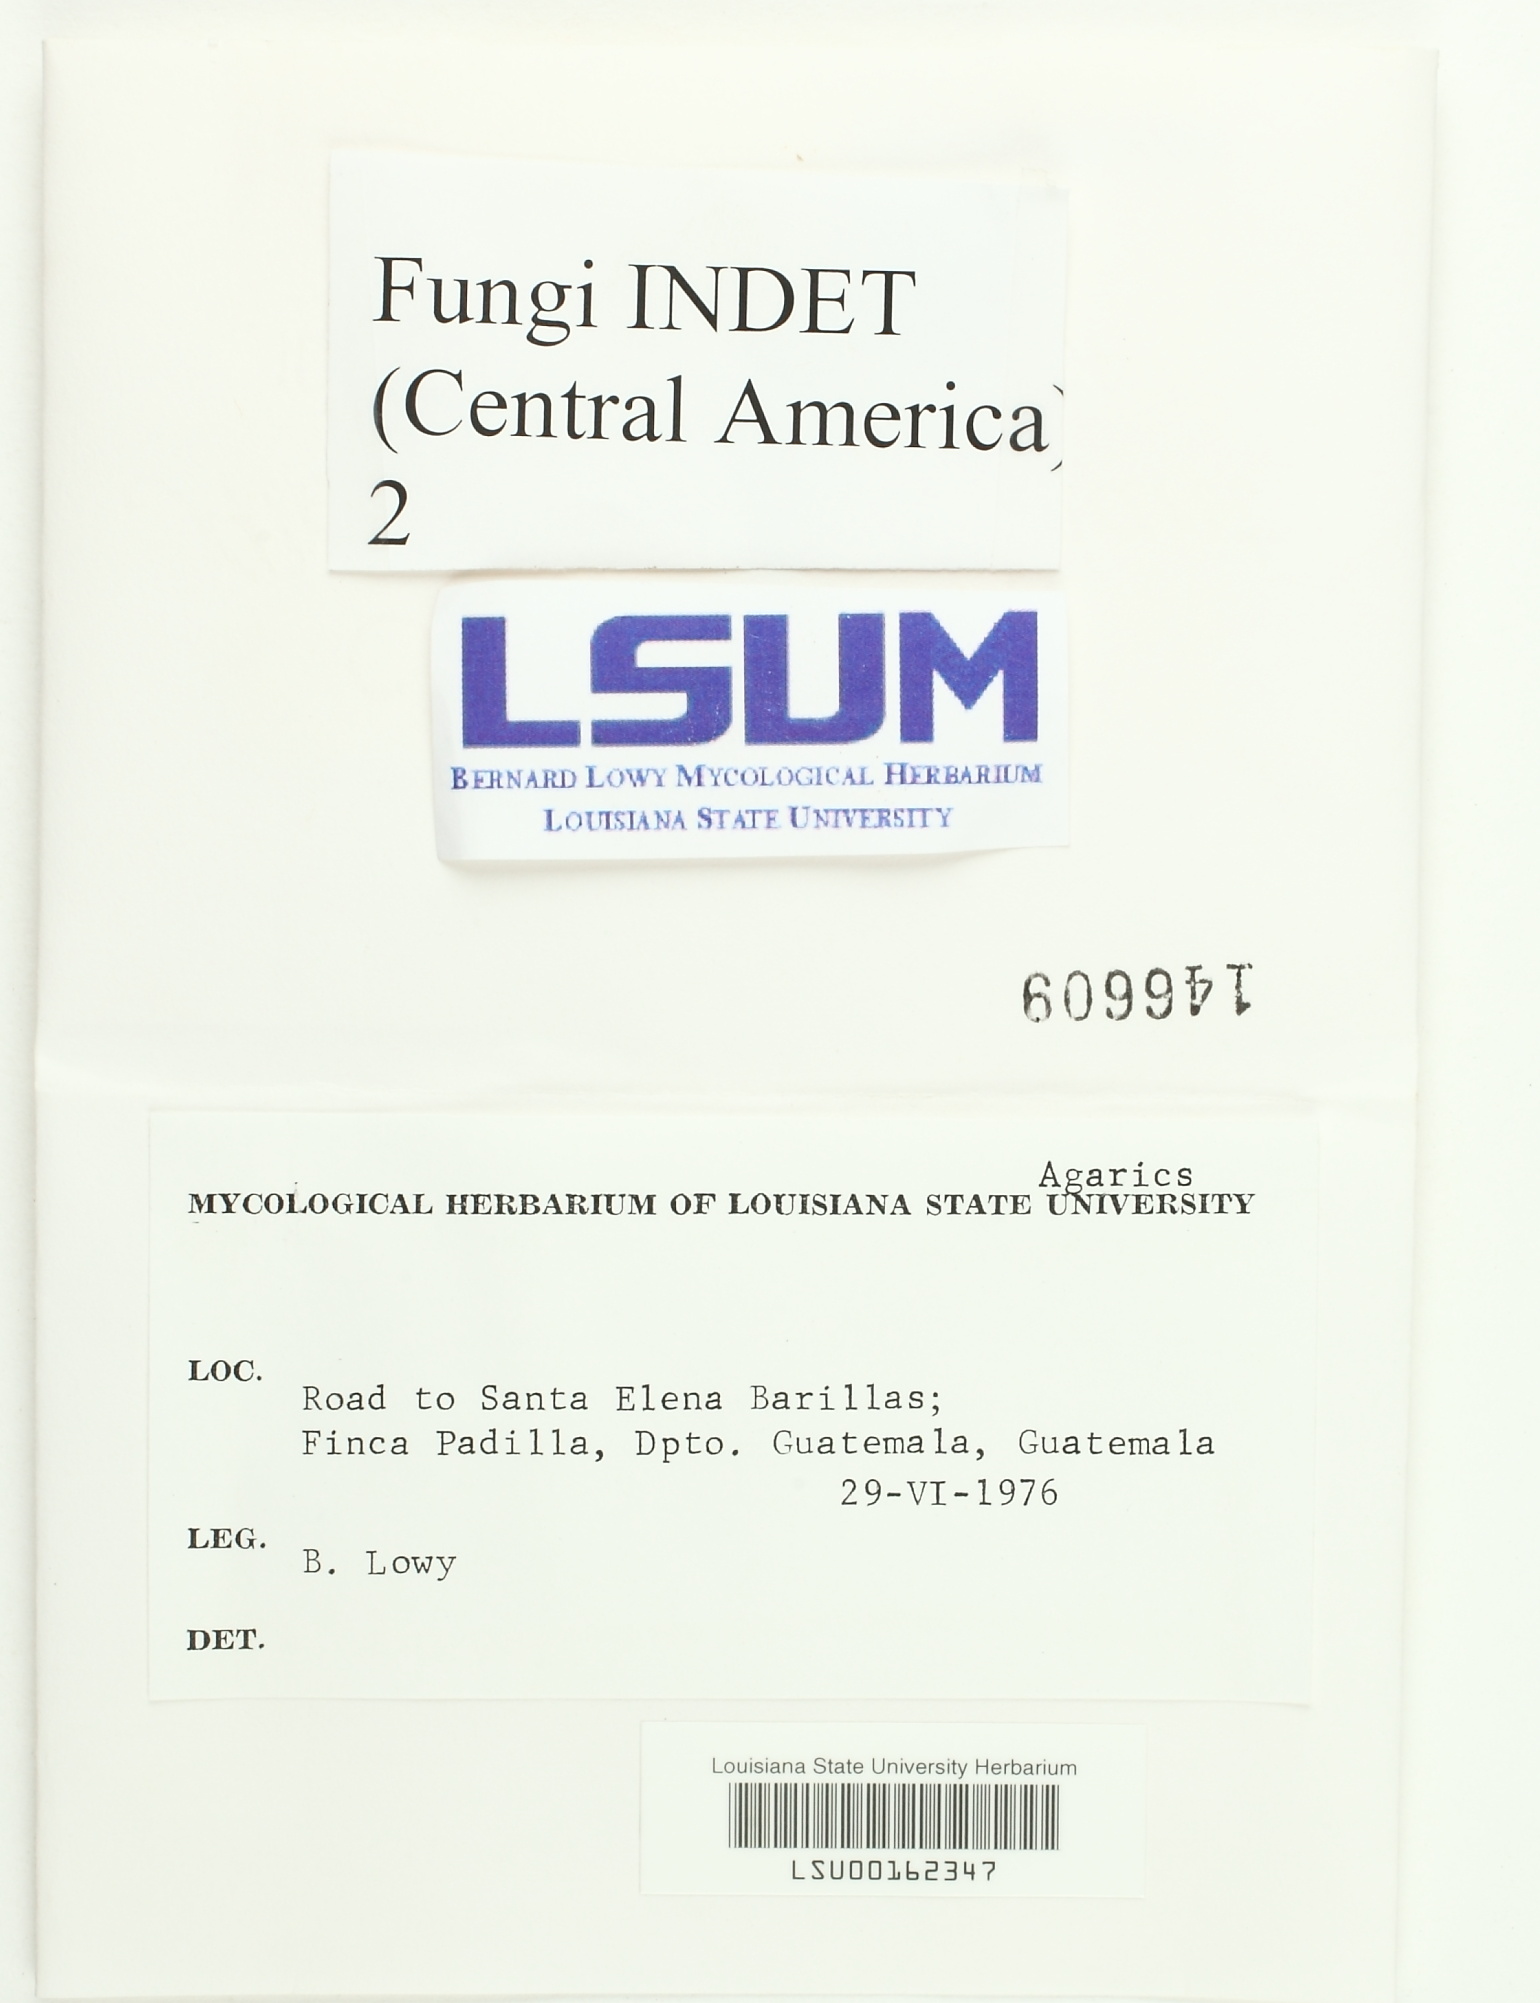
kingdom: Fungi
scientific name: Fungi
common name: Fungi
